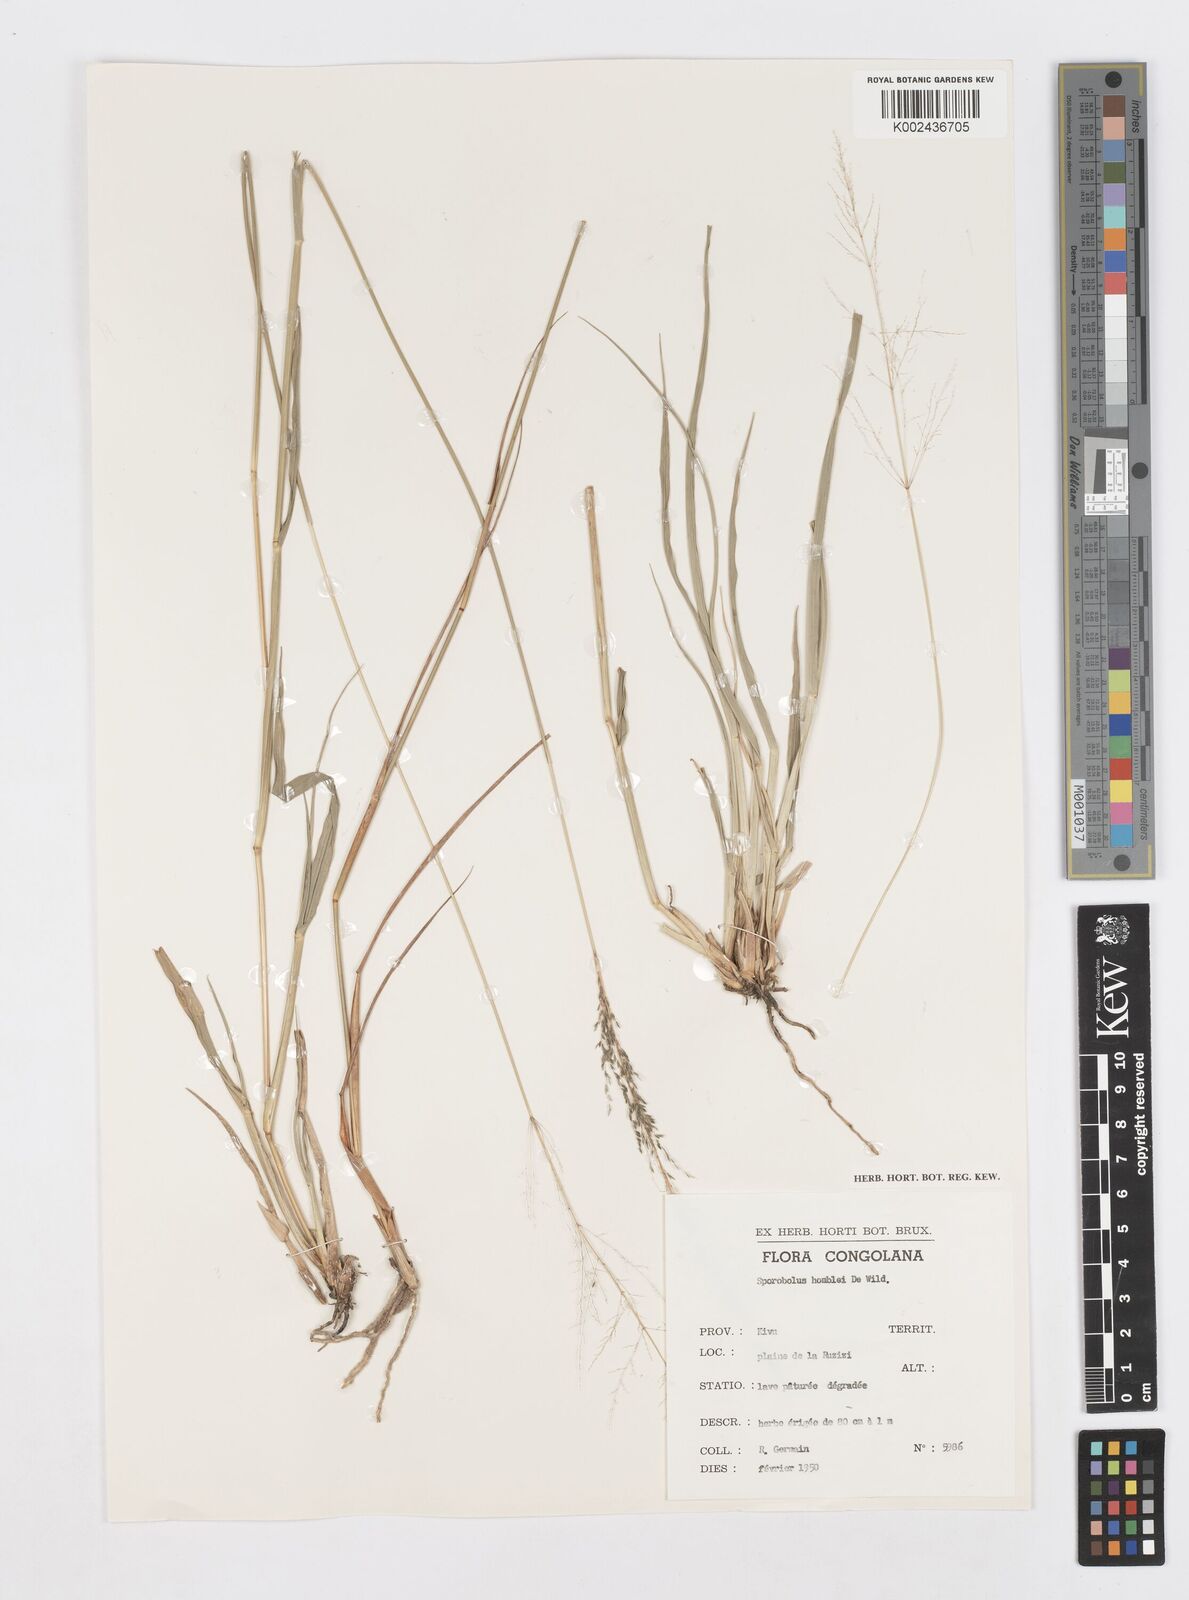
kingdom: Plantae
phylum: Tracheophyta
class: Liliopsida
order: Poales
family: Poaceae
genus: Sporobolus
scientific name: Sporobolus ioclados
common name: Pan dropseed
